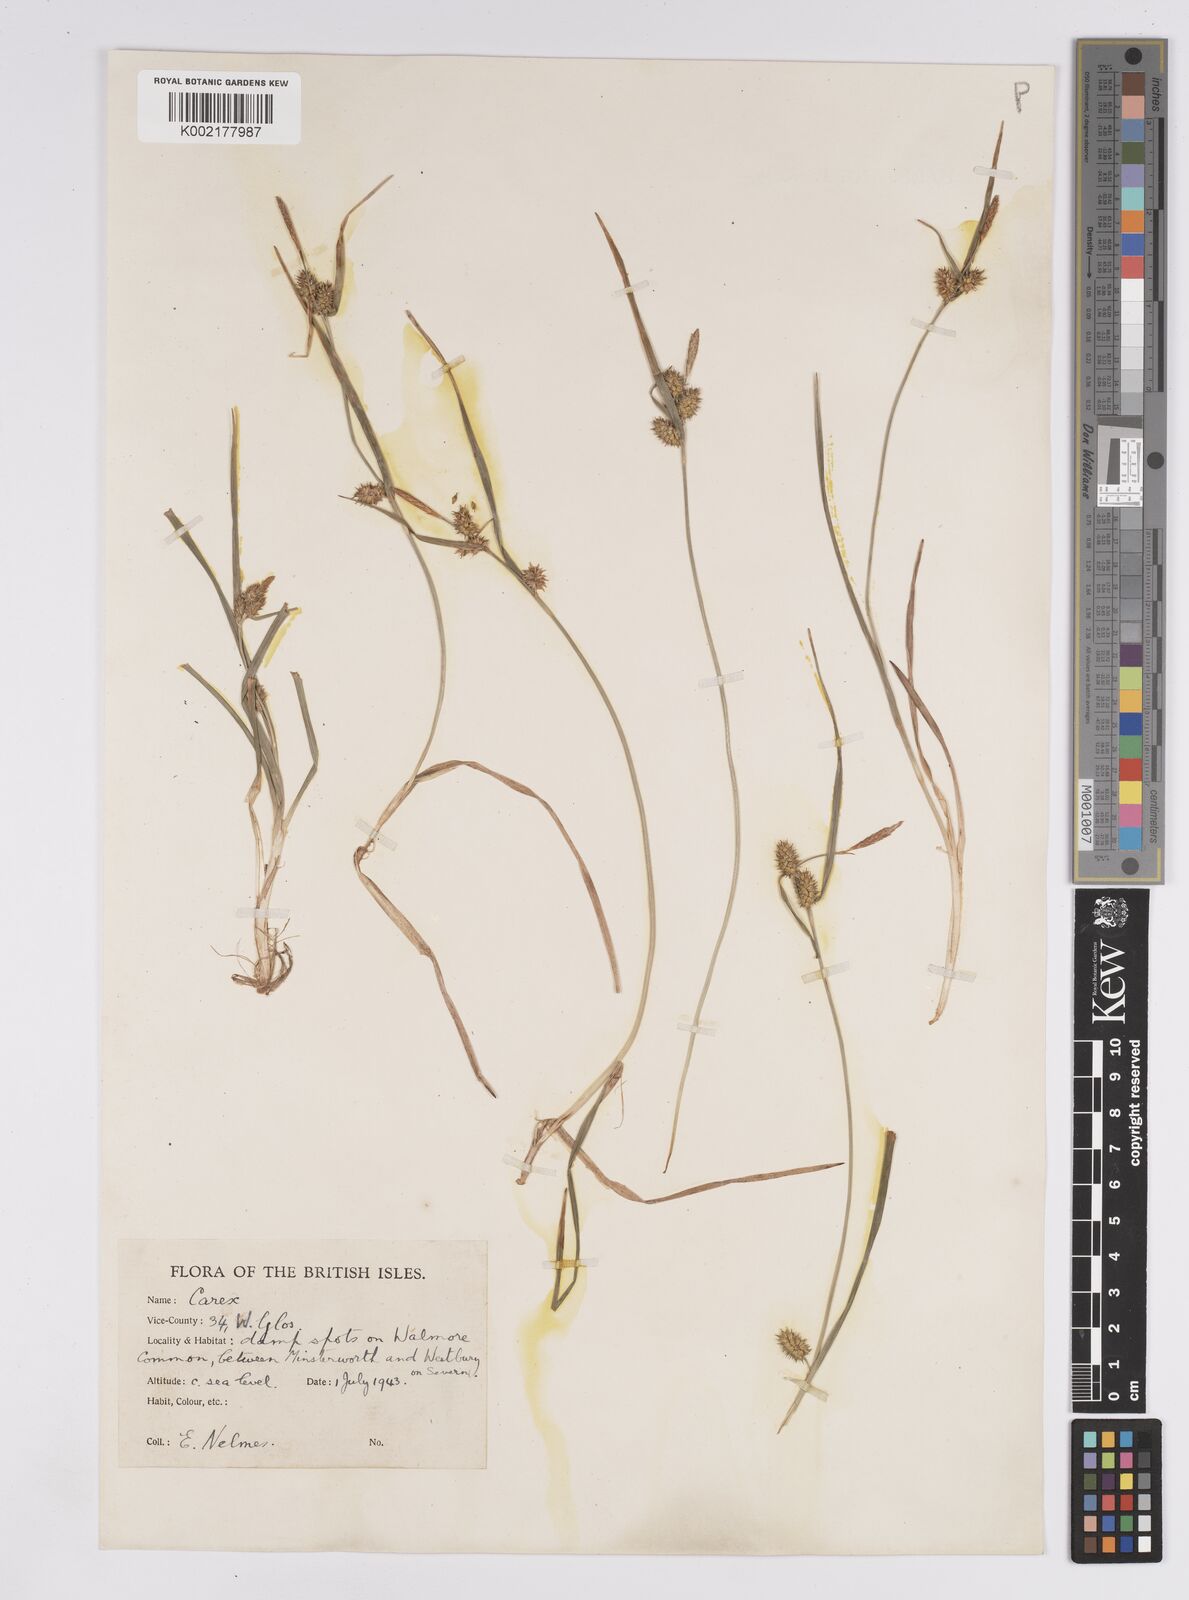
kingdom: Plantae
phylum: Tracheophyta
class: Liliopsida
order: Poales
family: Cyperaceae
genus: Carex
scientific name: Carex demissa
